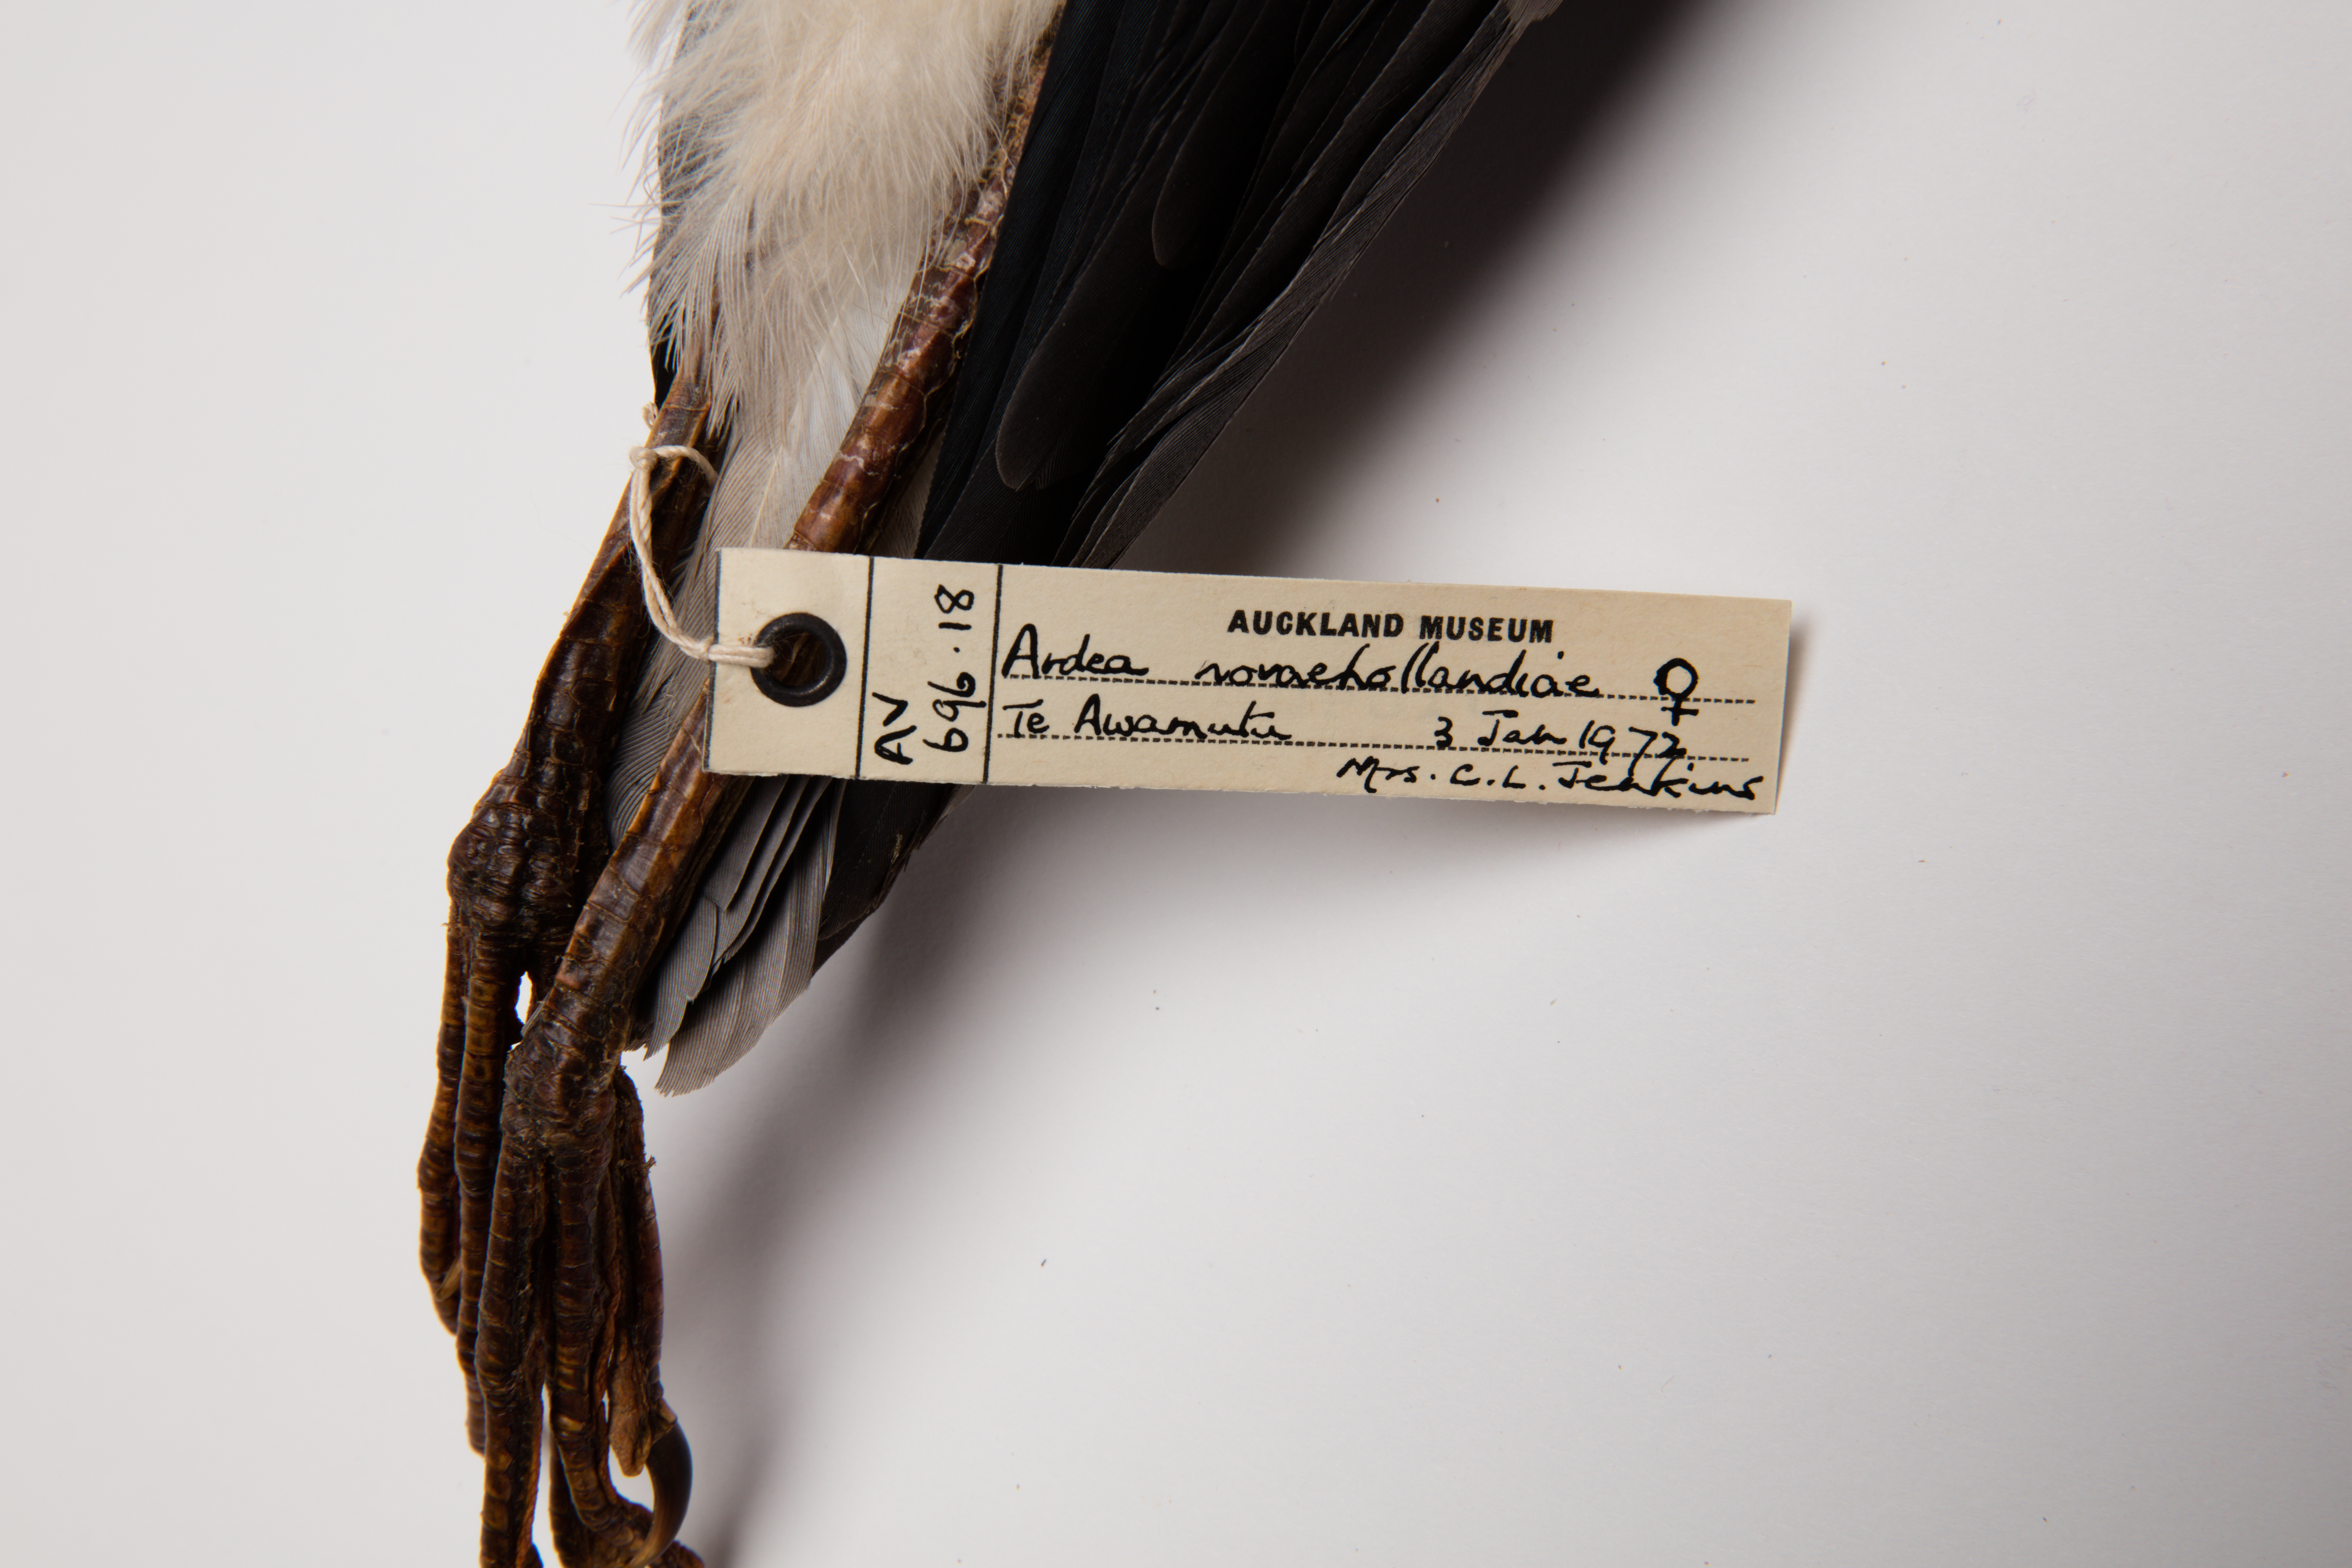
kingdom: Animalia
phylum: Chordata
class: Aves
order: Pelecaniformes
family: Ardeidae
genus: Egretta
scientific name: Egretta novaehollandiae
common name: White-faced heron
